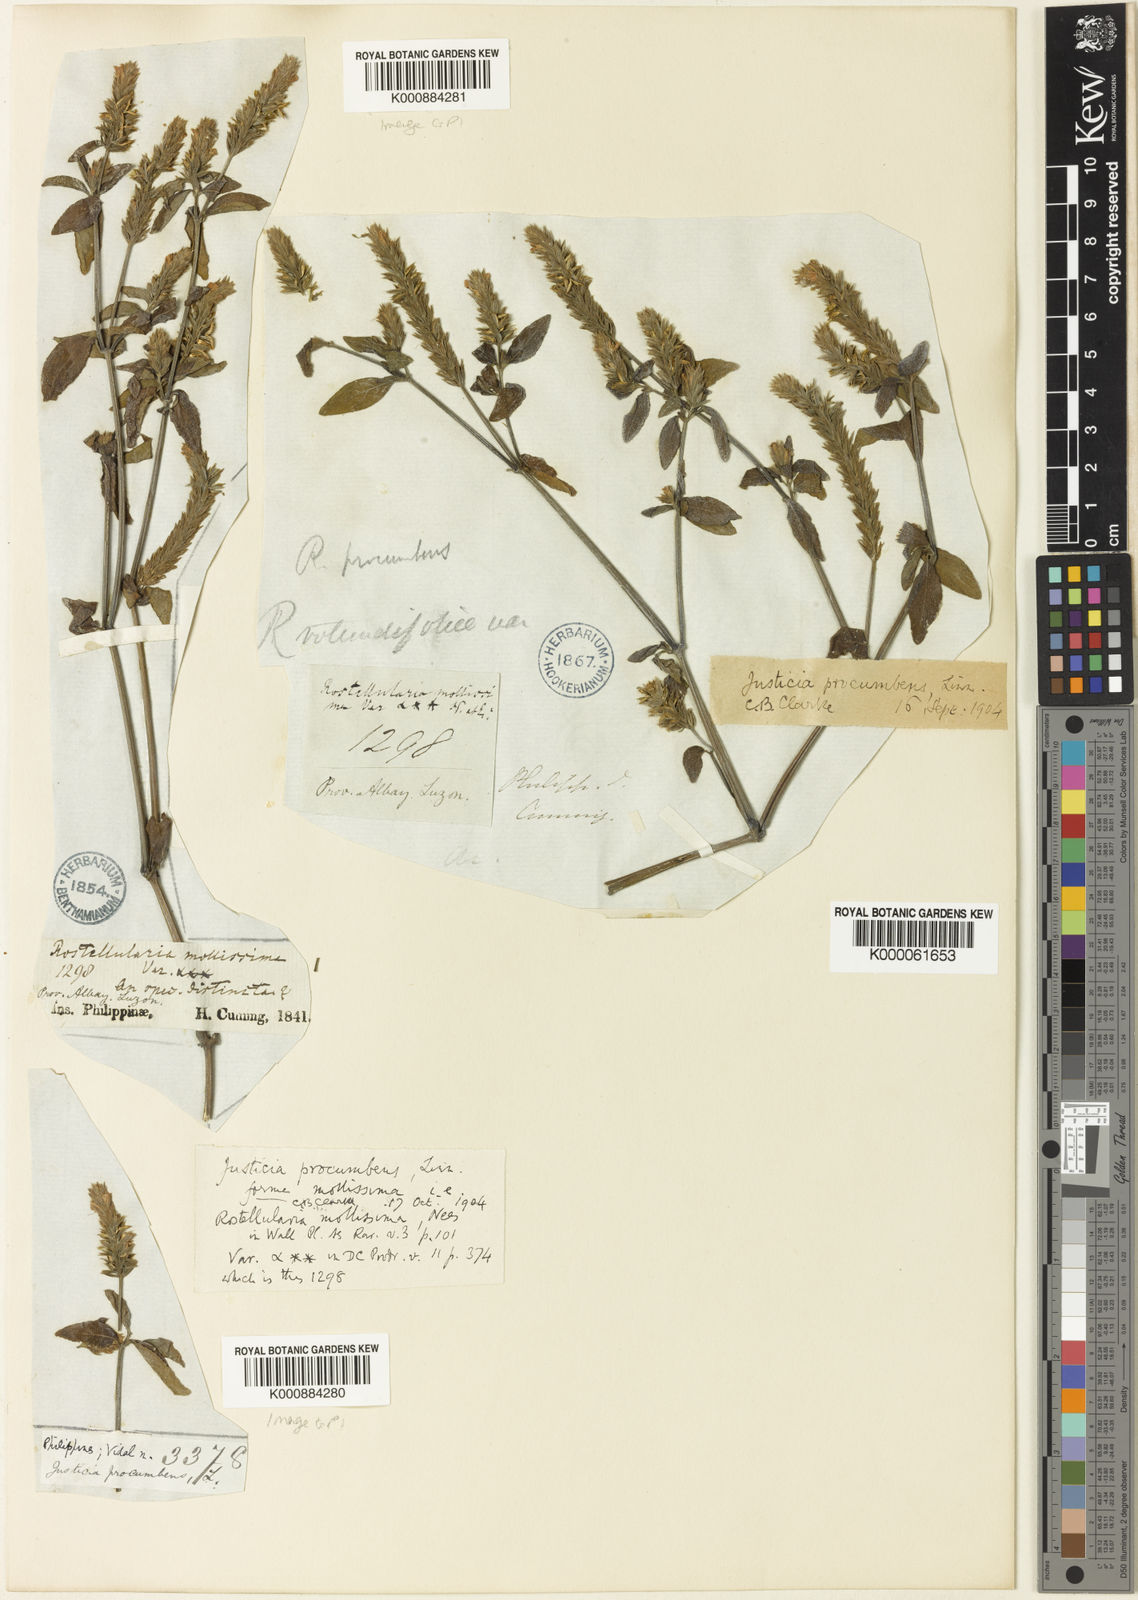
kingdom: Plantae
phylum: Tracheophyta
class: Magnoliopsida
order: Lamiales
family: Acanthaceae
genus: Rostellularia
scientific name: Rostellularia procumbens
